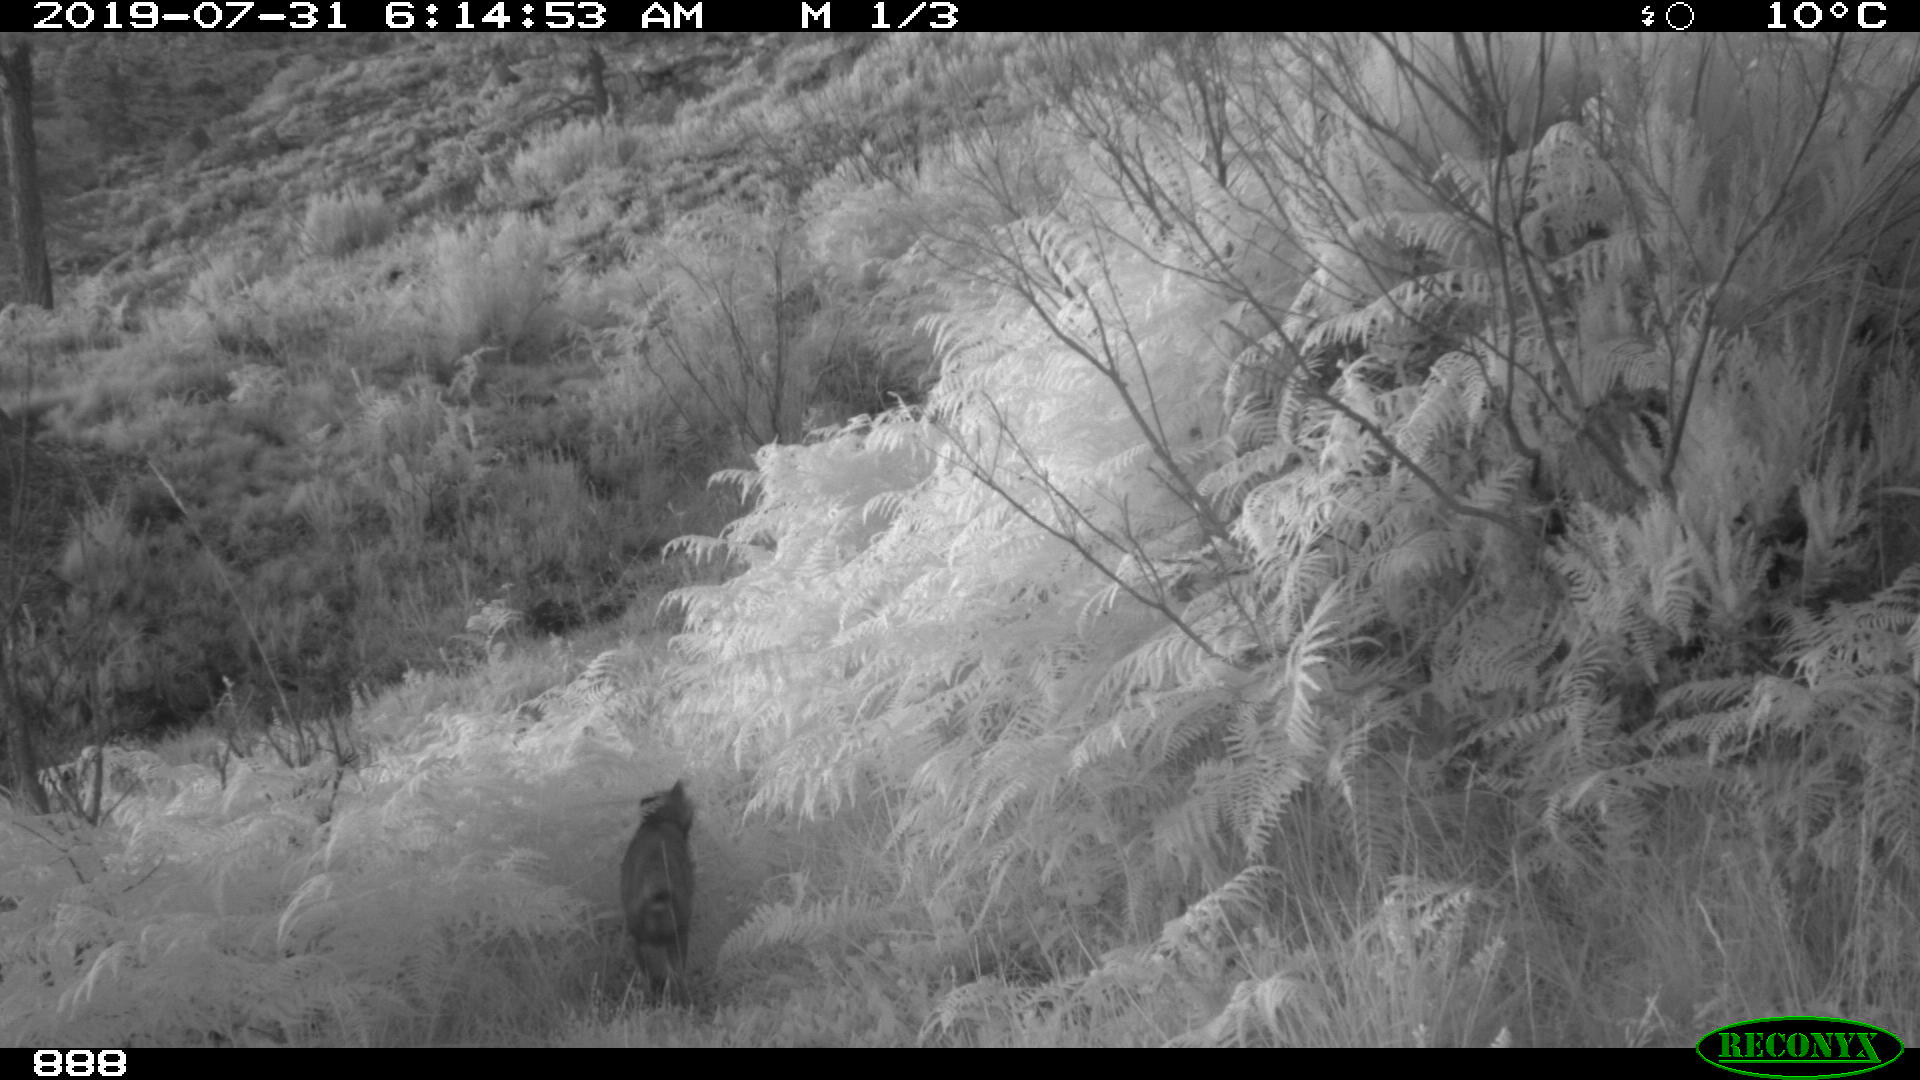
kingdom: Animalia
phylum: Chordata
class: Mammalia
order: Carnivora
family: Canidae
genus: Vulpes
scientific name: Vulpes vulpes
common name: Red fox
